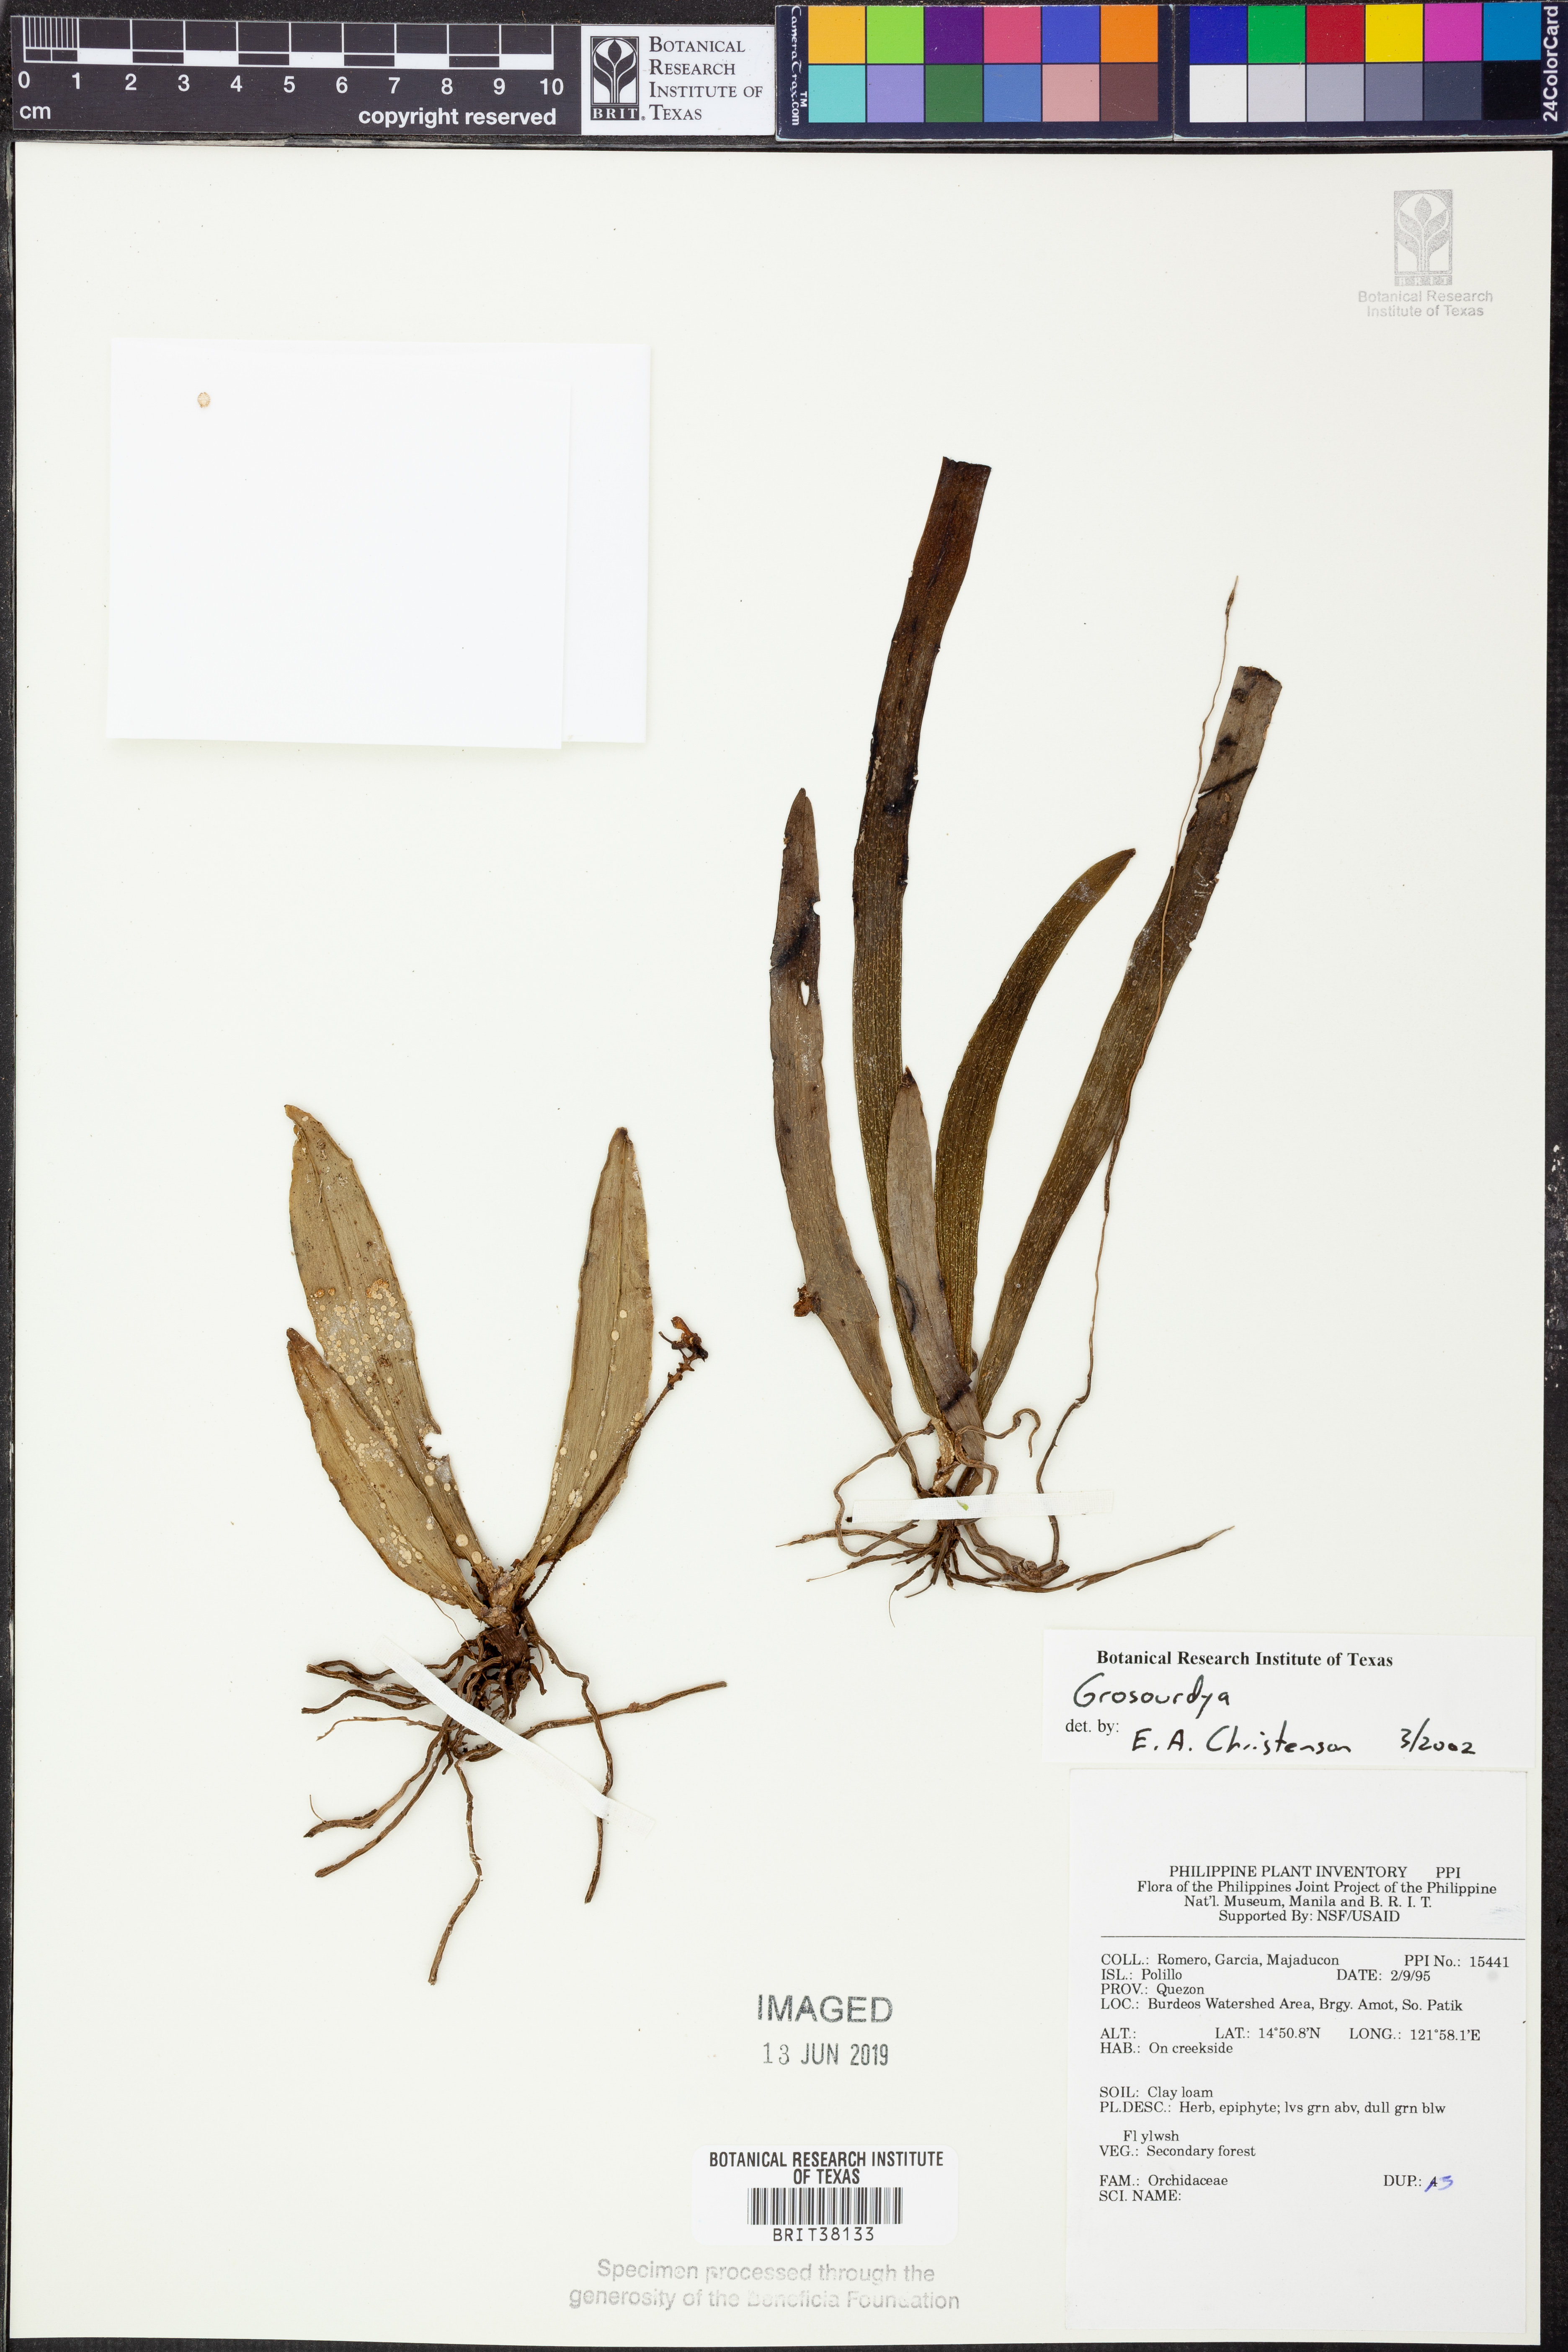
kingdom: Plantae
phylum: Tracheophyta
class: Liliopsida
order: Asparagales
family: Orchidaceae
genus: Grosourdya
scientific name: Grosourdya
